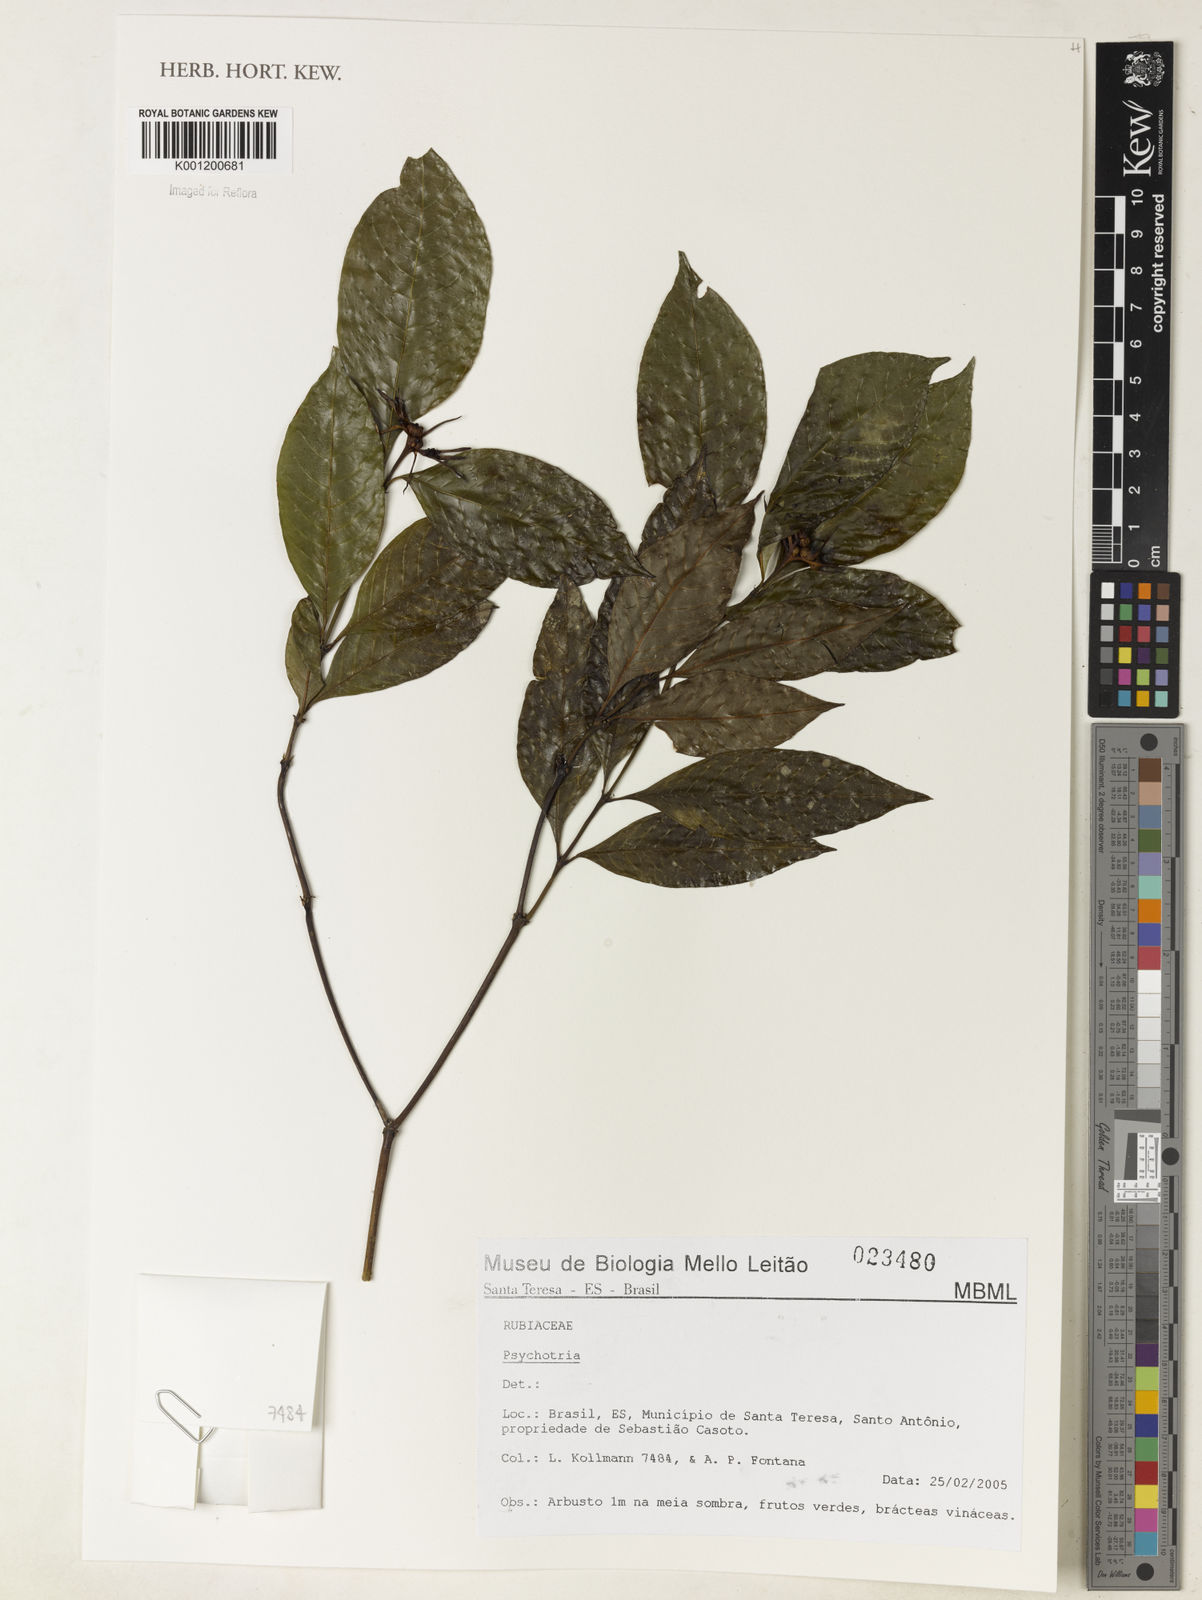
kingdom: Plantae
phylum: Tracheophyta
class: Magnoliopsida
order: Gentianales
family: Rubiaceae
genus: Psychotria
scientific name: Psychotria
